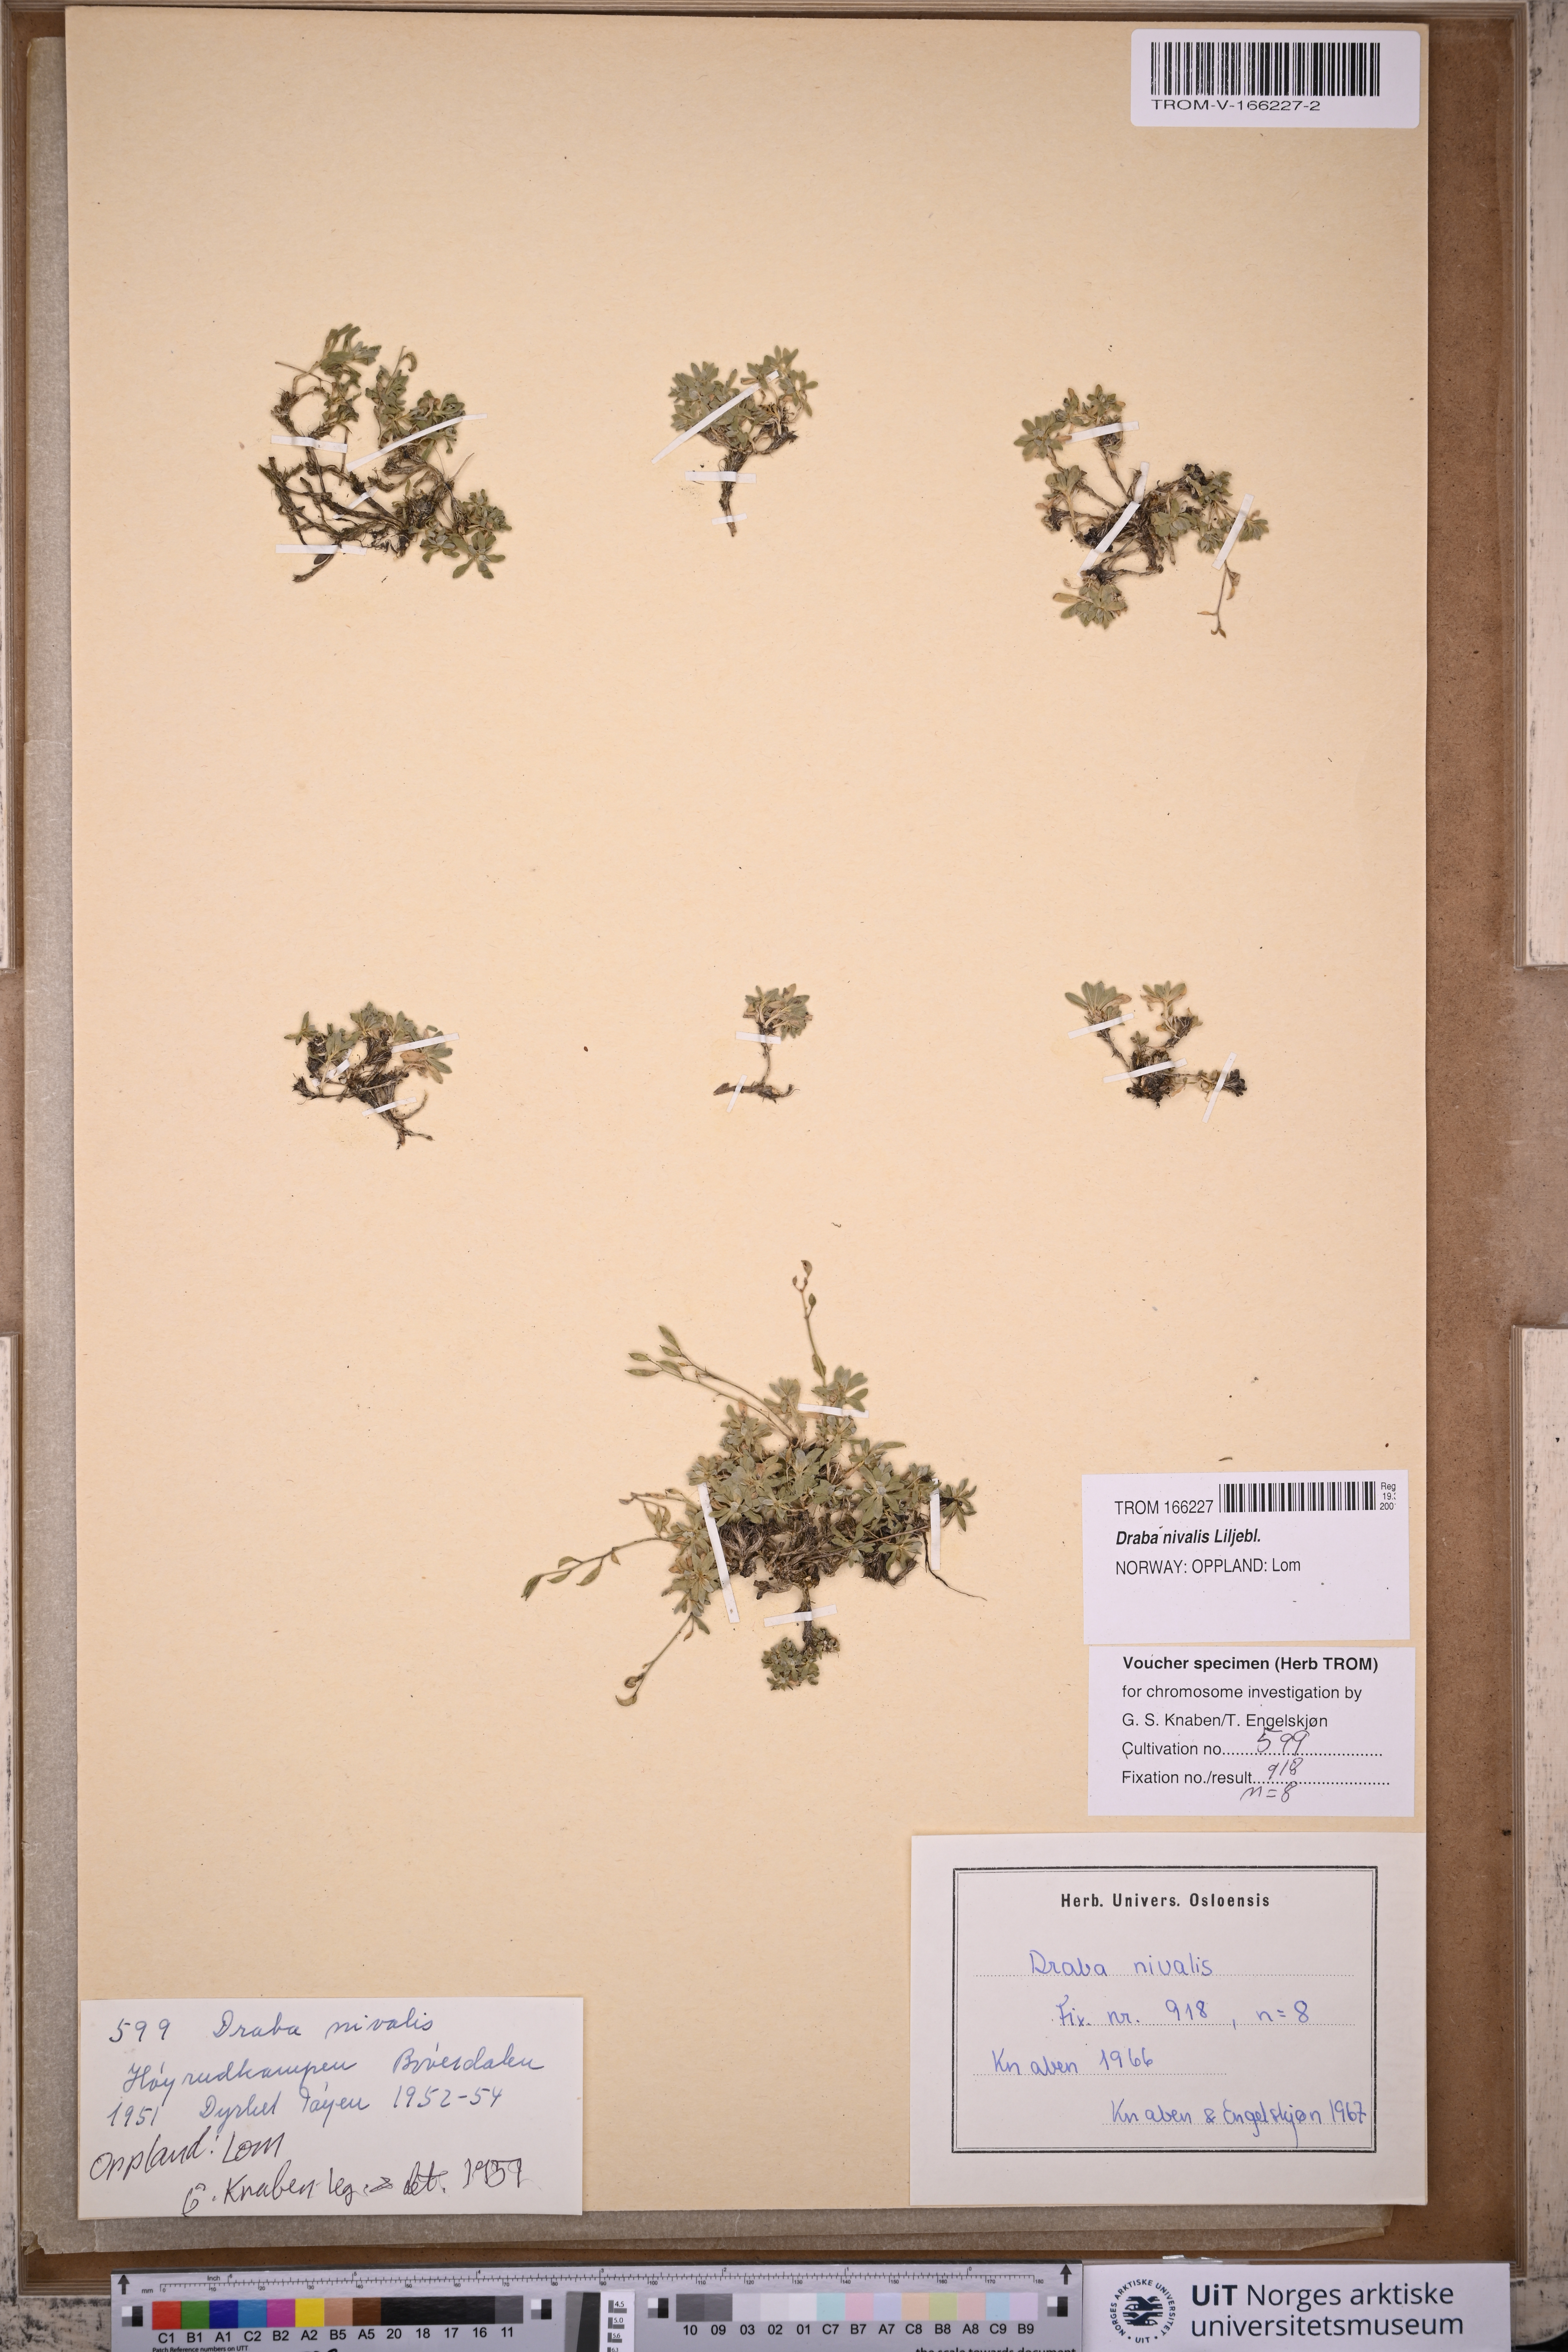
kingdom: Plantae
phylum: Tracheophyta
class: Magnoliopsida
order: Brassicales
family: Brassicaceae
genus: Draba
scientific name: Draba nivalis
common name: Snow draba
